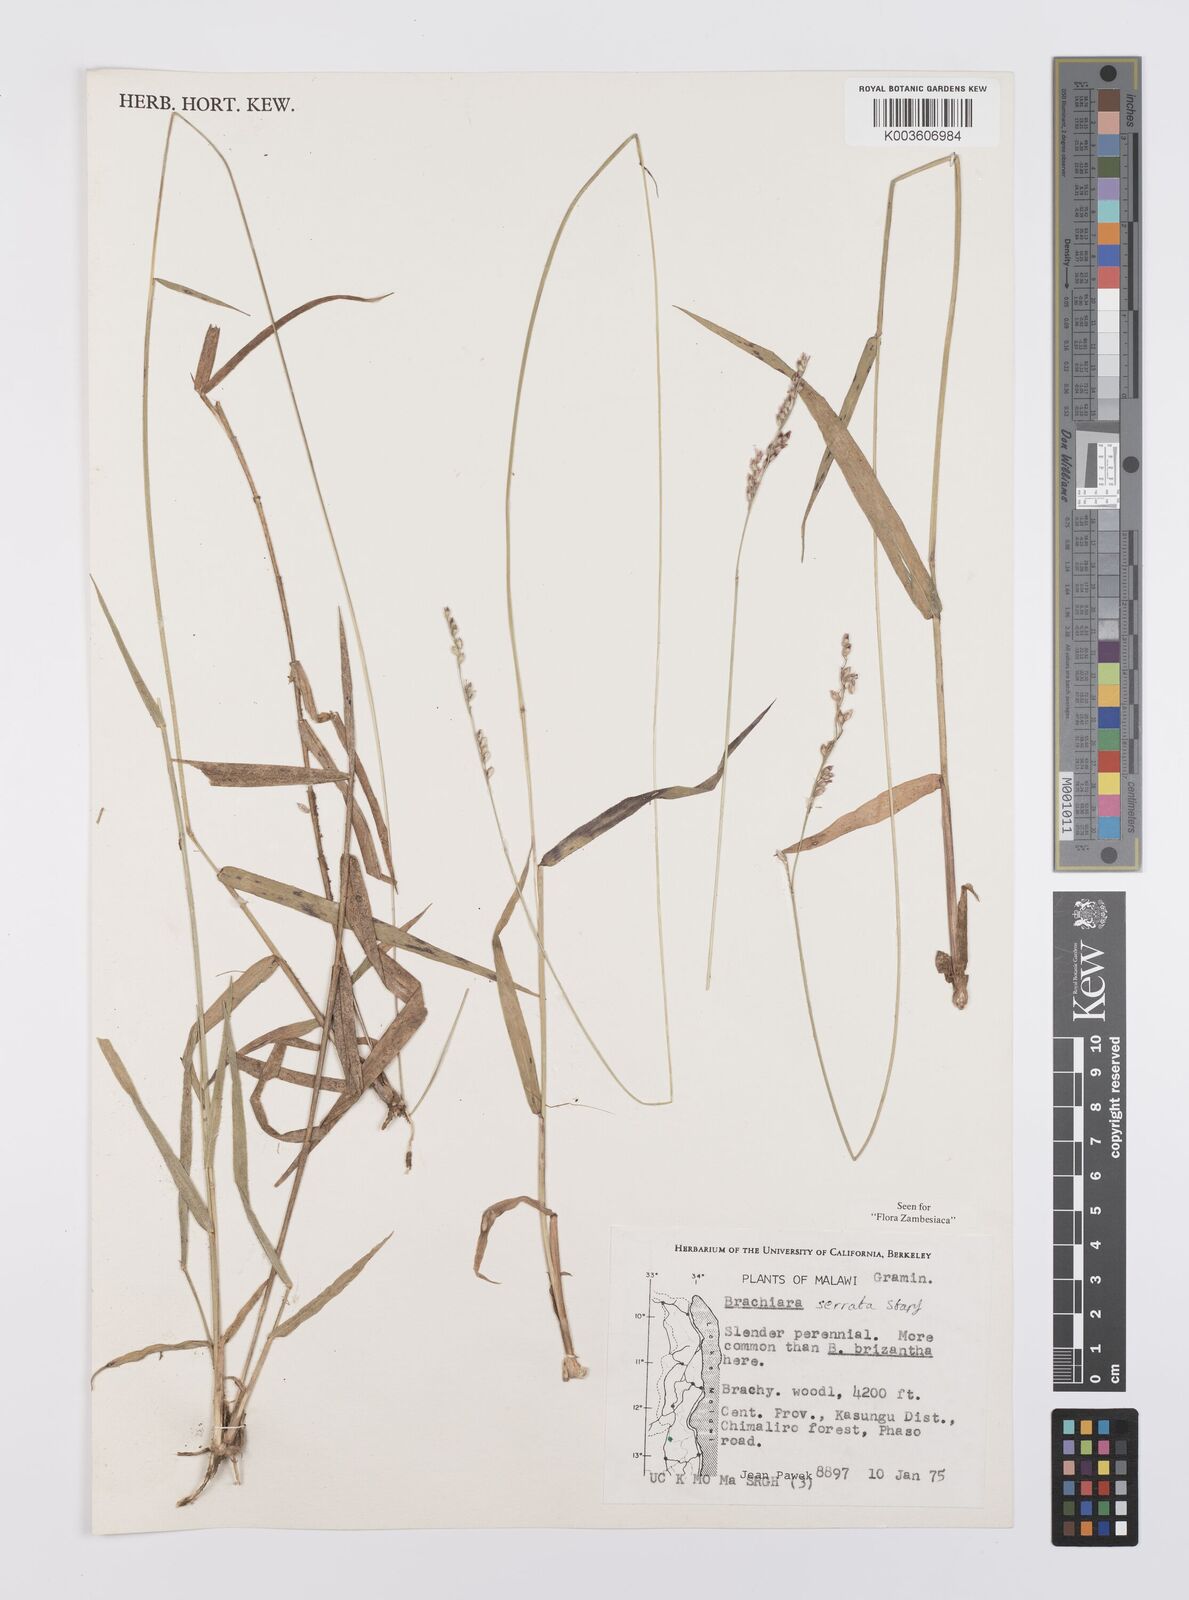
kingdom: Plantae
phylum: Tracheophyta
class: Liliopsida
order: Poales
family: Poaceae
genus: Urochloa
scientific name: Urochloa serrata
